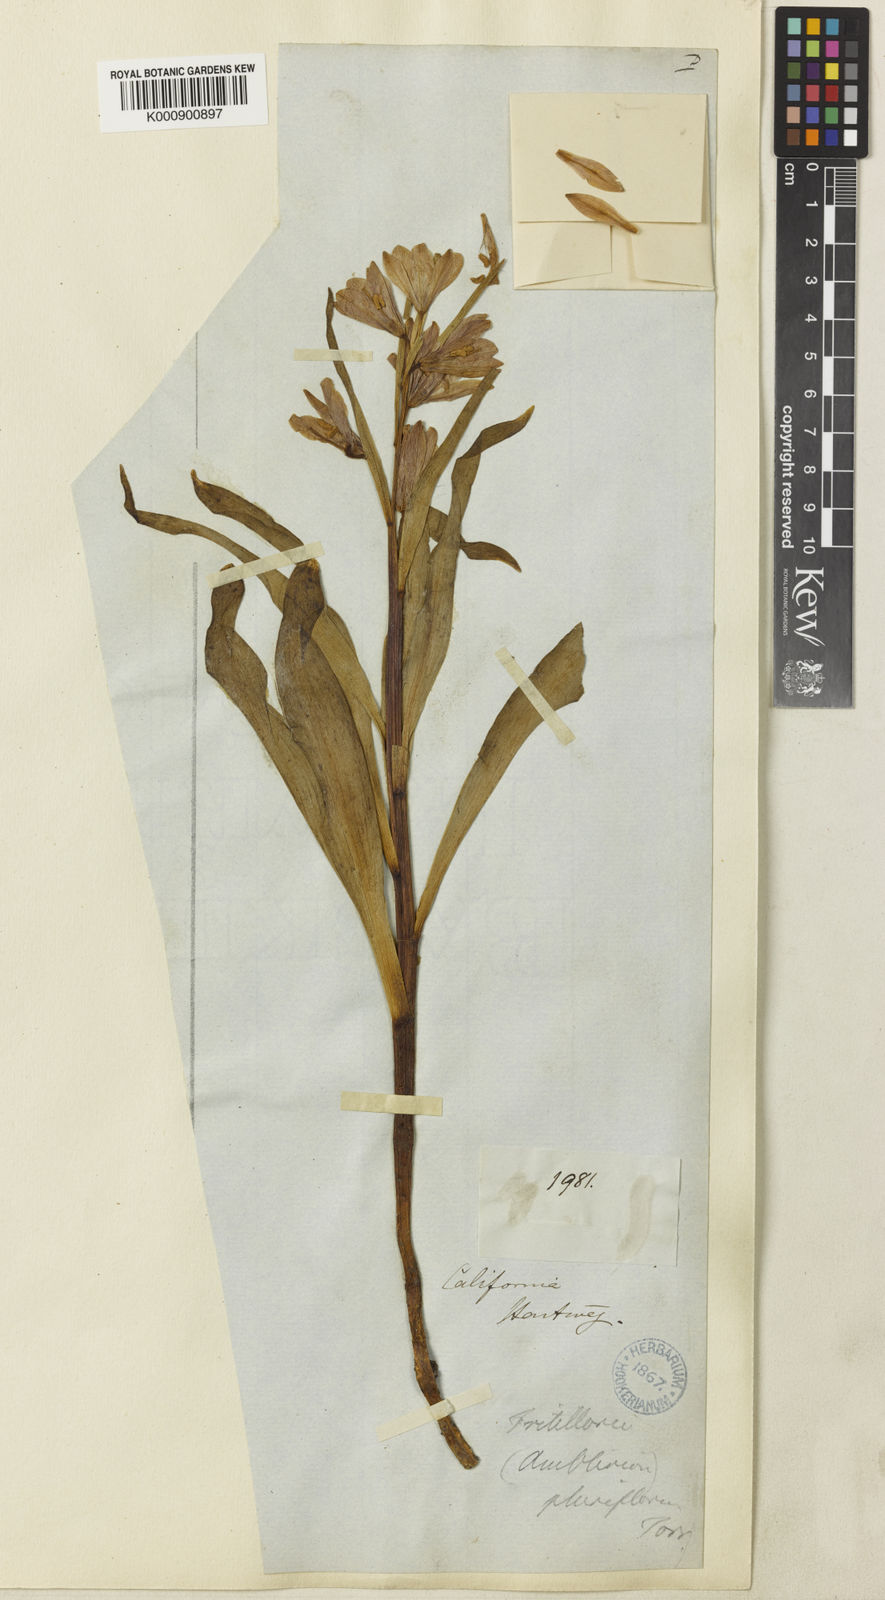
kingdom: Plantae
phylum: Tracheophyta
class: Liliopsida
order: Liliales
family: Liliaceae
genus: Fritillaria
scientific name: Fritillaria pluriflora
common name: Adobe-lily
